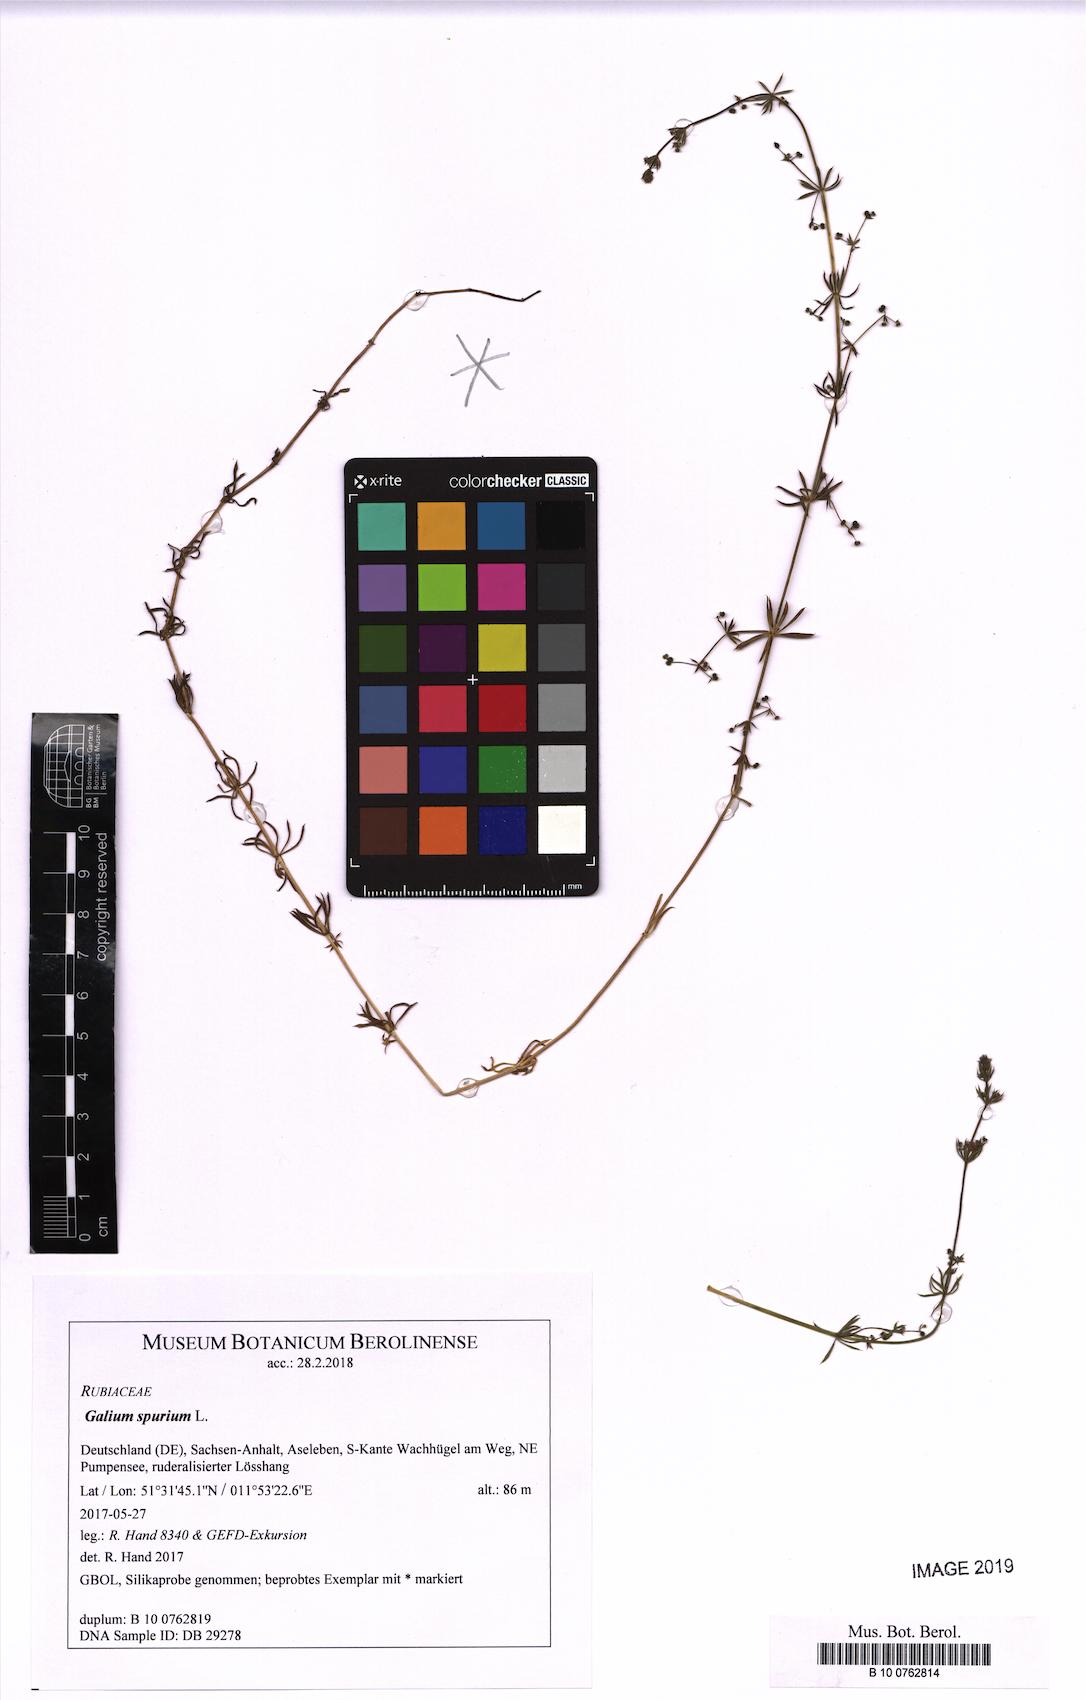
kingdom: Plantae
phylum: Tracheophyta
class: Magnoliopsida
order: Gentianales
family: Rubiaceae
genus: Galium
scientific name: Galium spurium
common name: False cleavers
